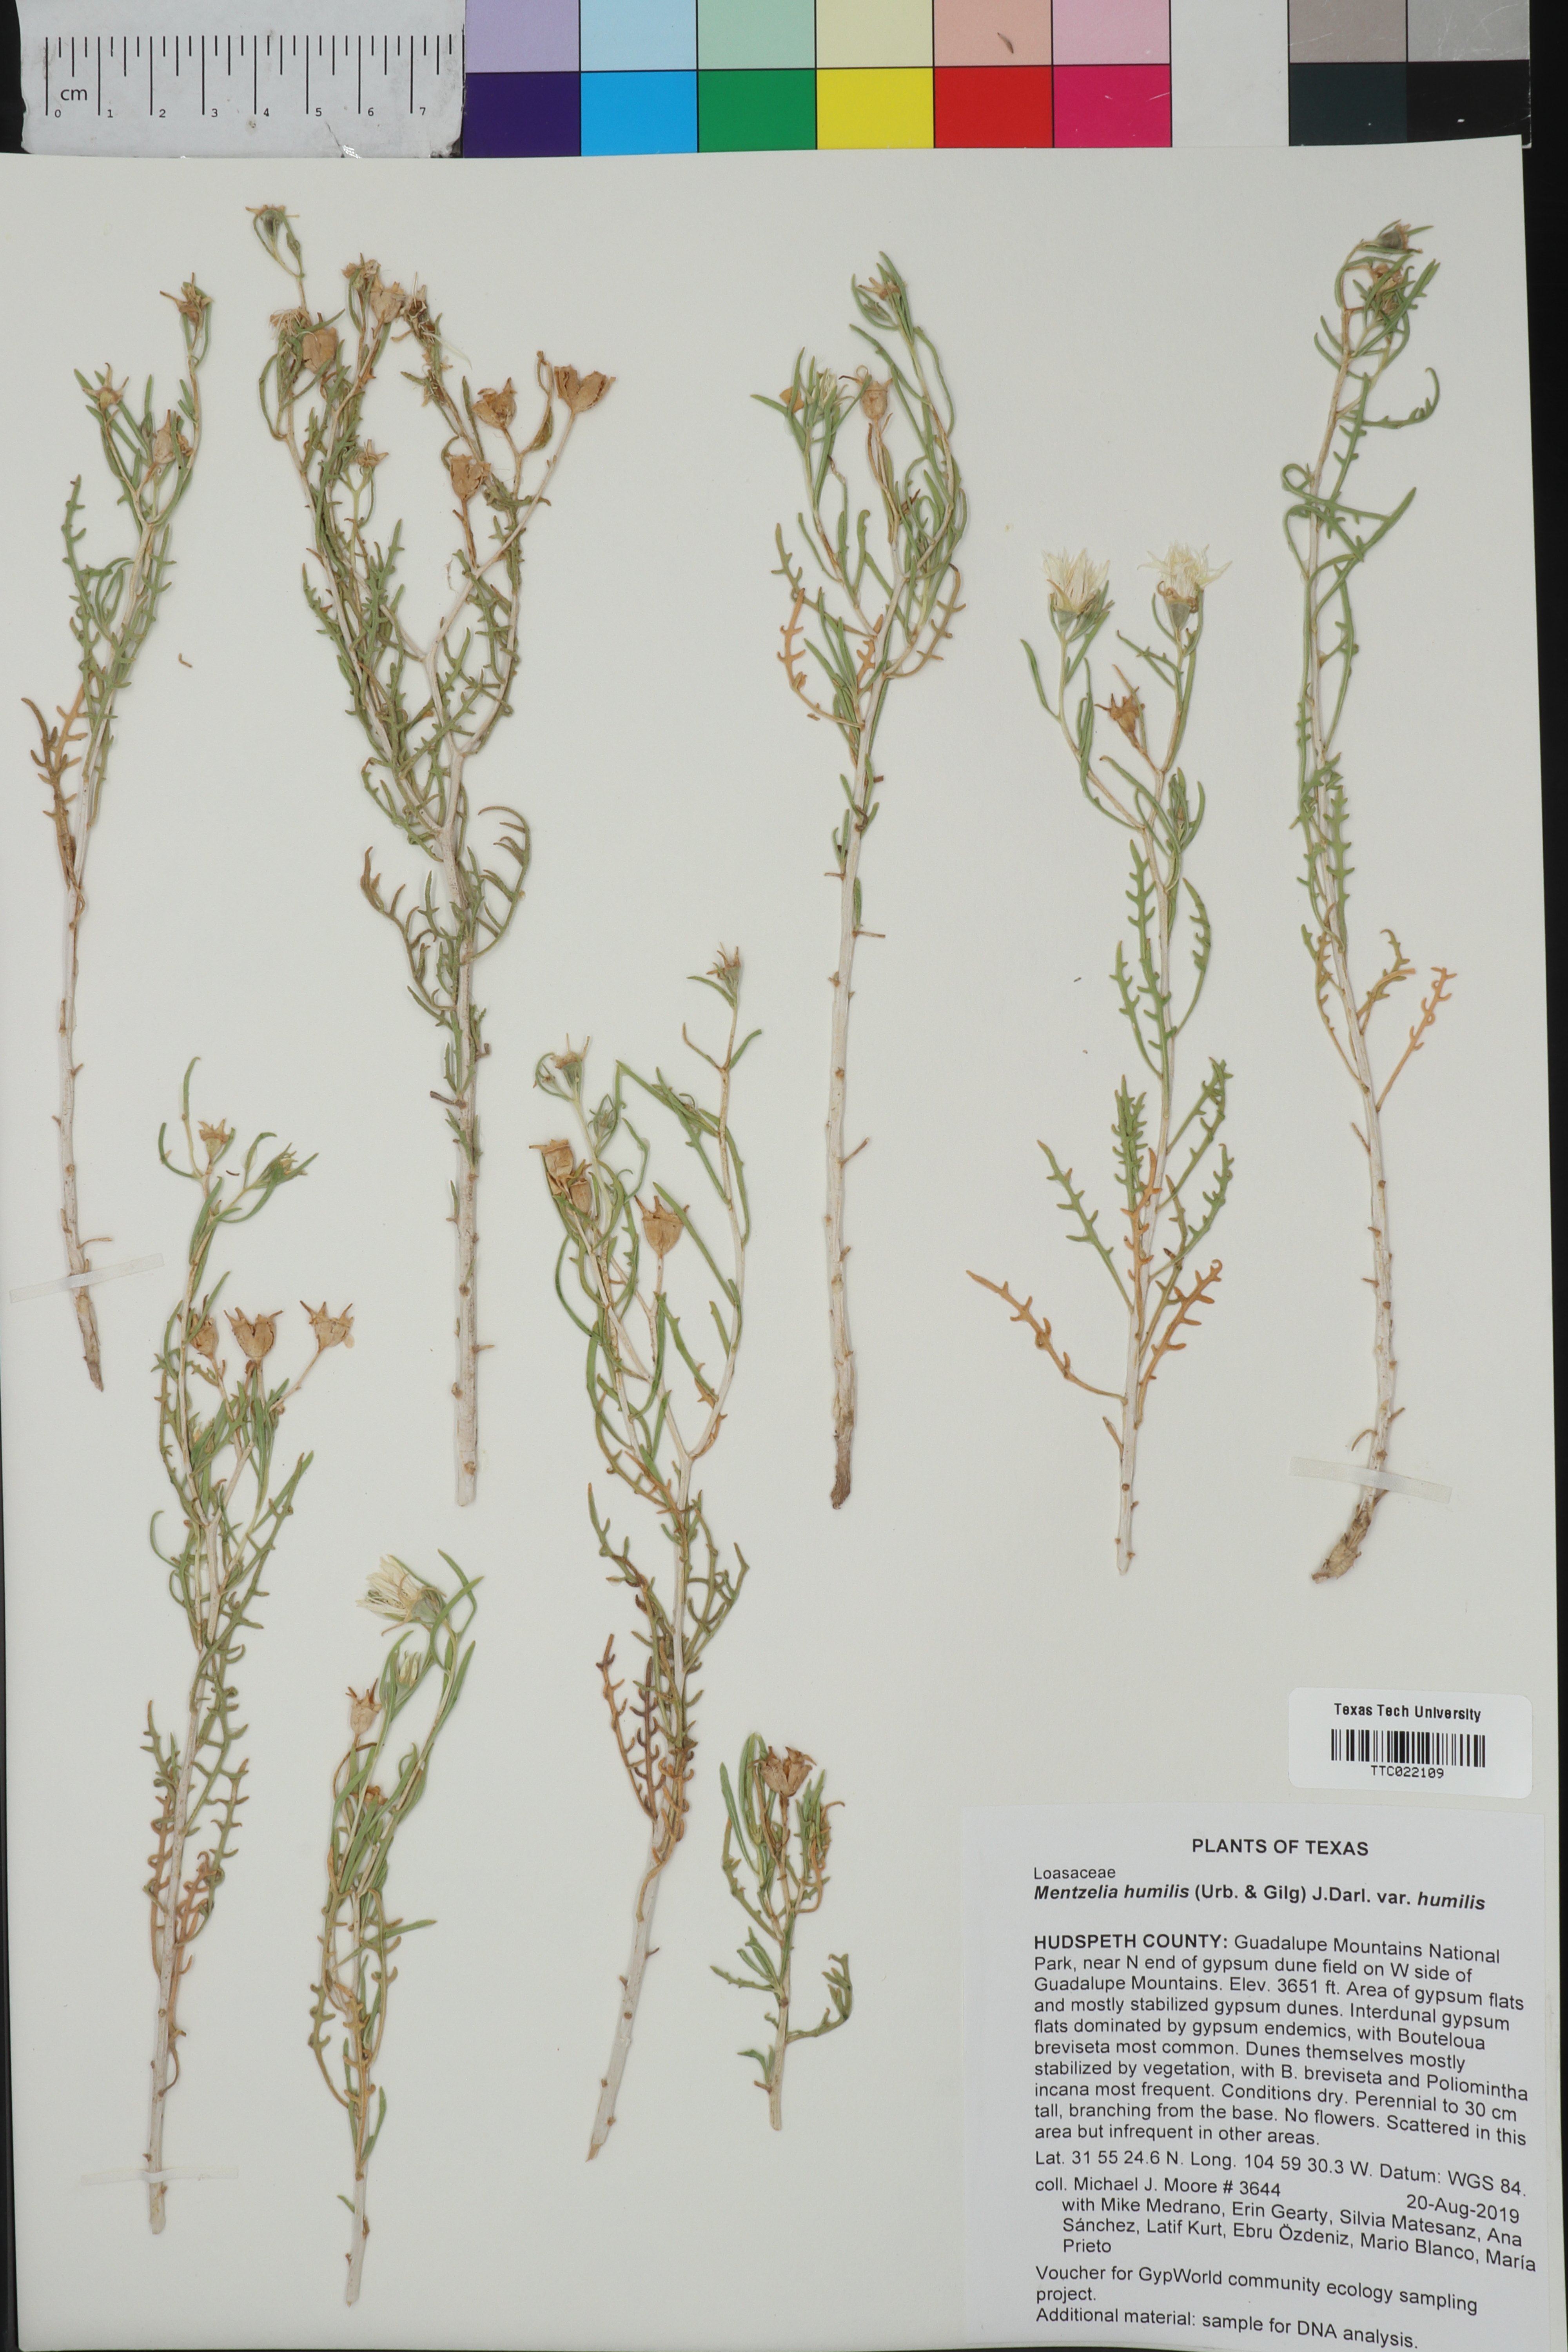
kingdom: Plantae
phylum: Tracheophyta
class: Magnoliopsida
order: Cornales
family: Loasaceae
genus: Mentzelia
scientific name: Mentzelia humilis
